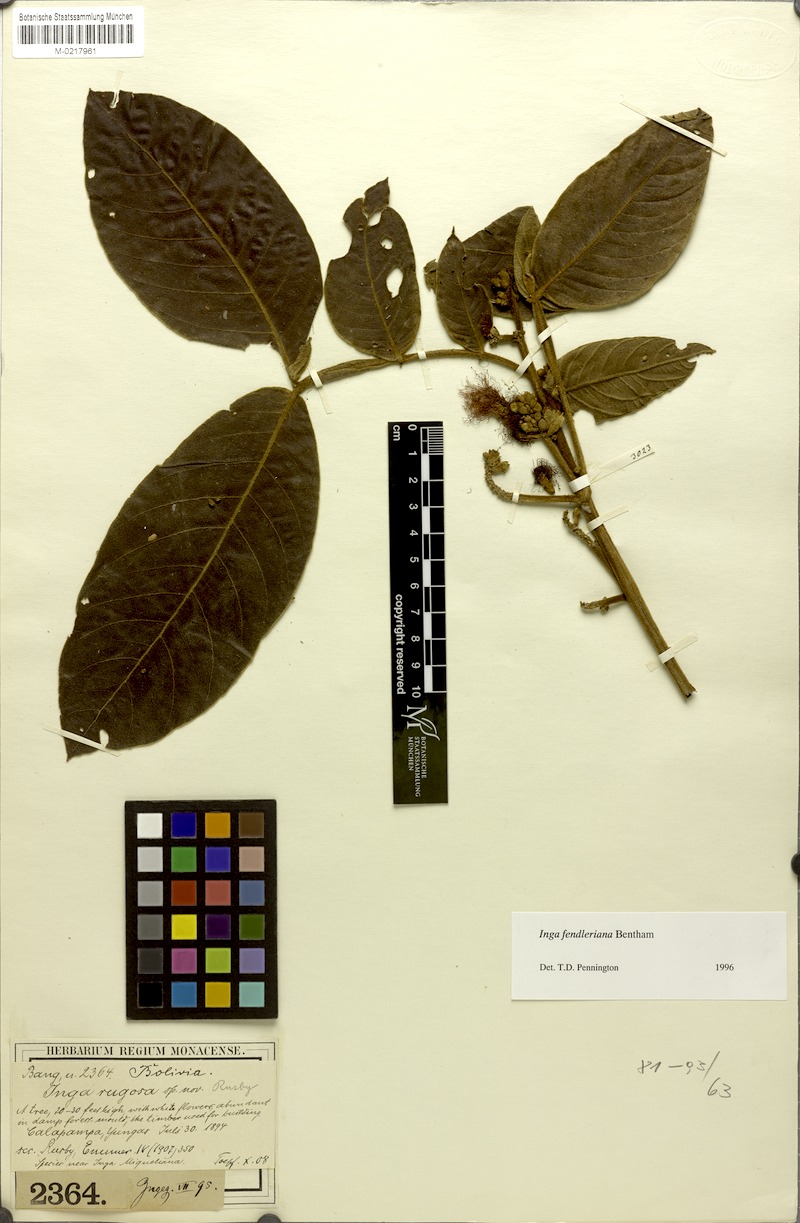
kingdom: Plantae
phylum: Tracheophyta
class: Magnoliopsida
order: Fabales
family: Fabaceae
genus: Inga
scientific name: Inga fendleriana
